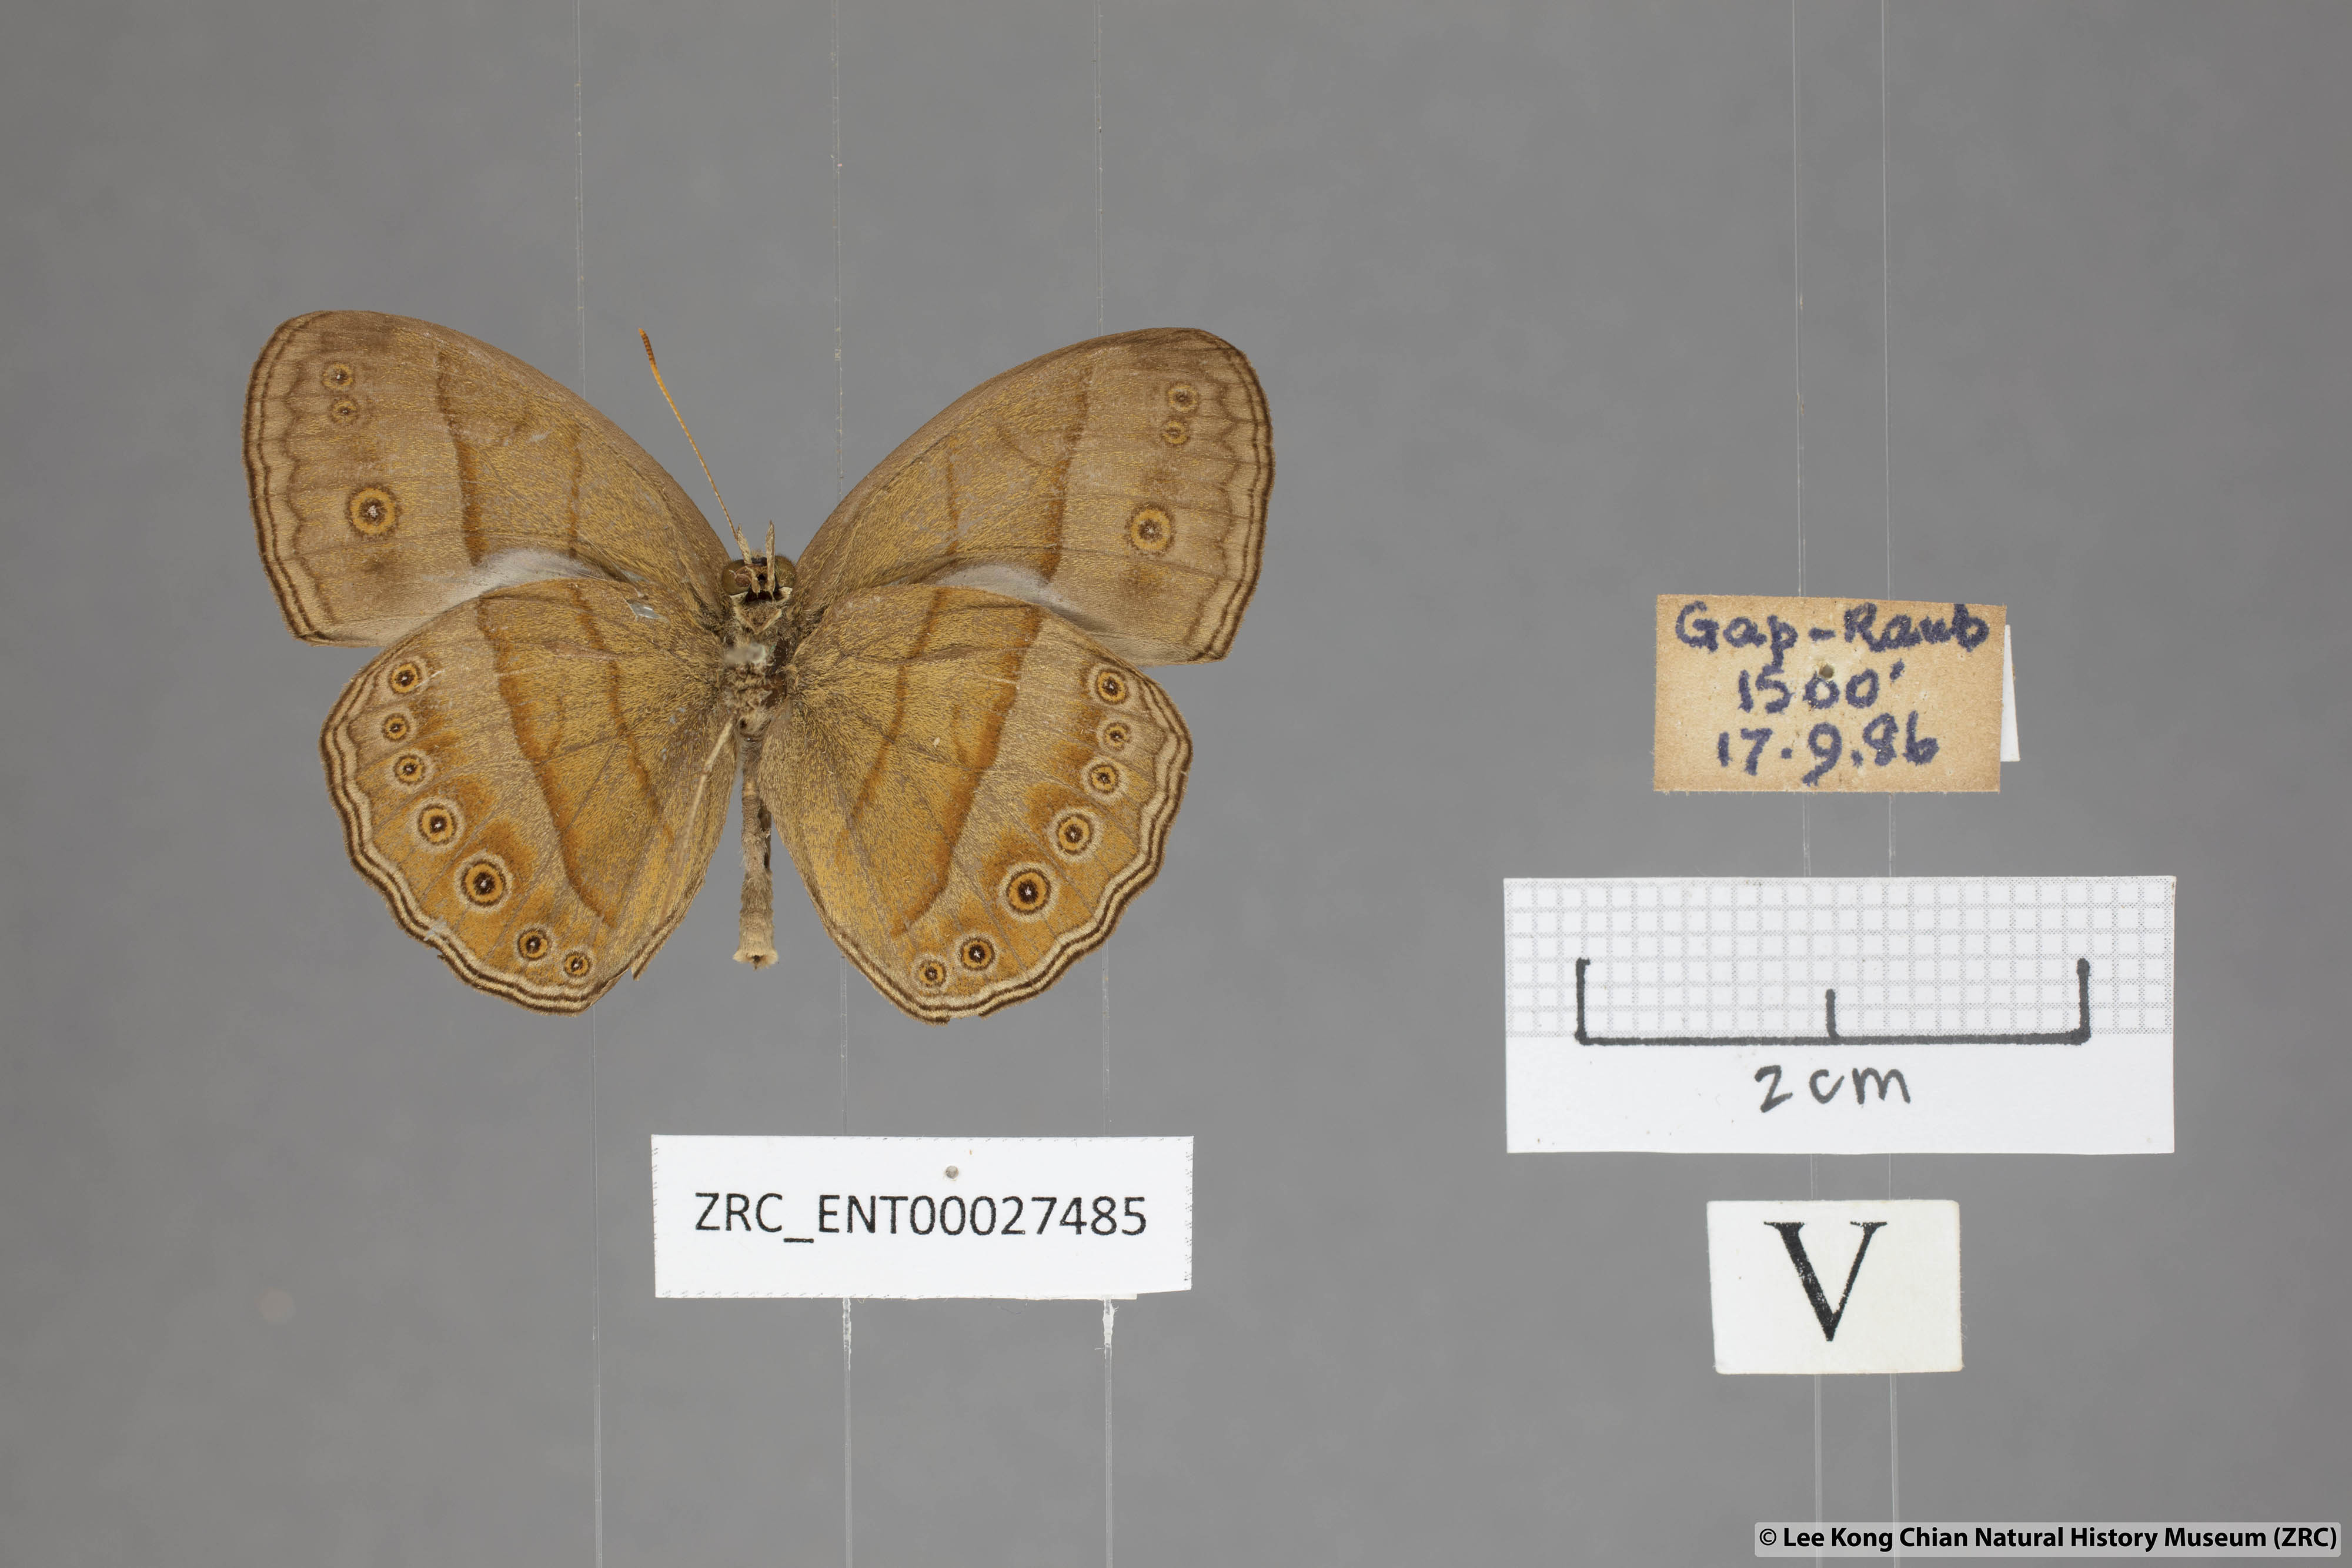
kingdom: Animalia
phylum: Arthropoda
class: Insecta
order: Lepidoptera
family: Nymphalidae
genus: Mycalesis
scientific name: Mycalesis fuscum
